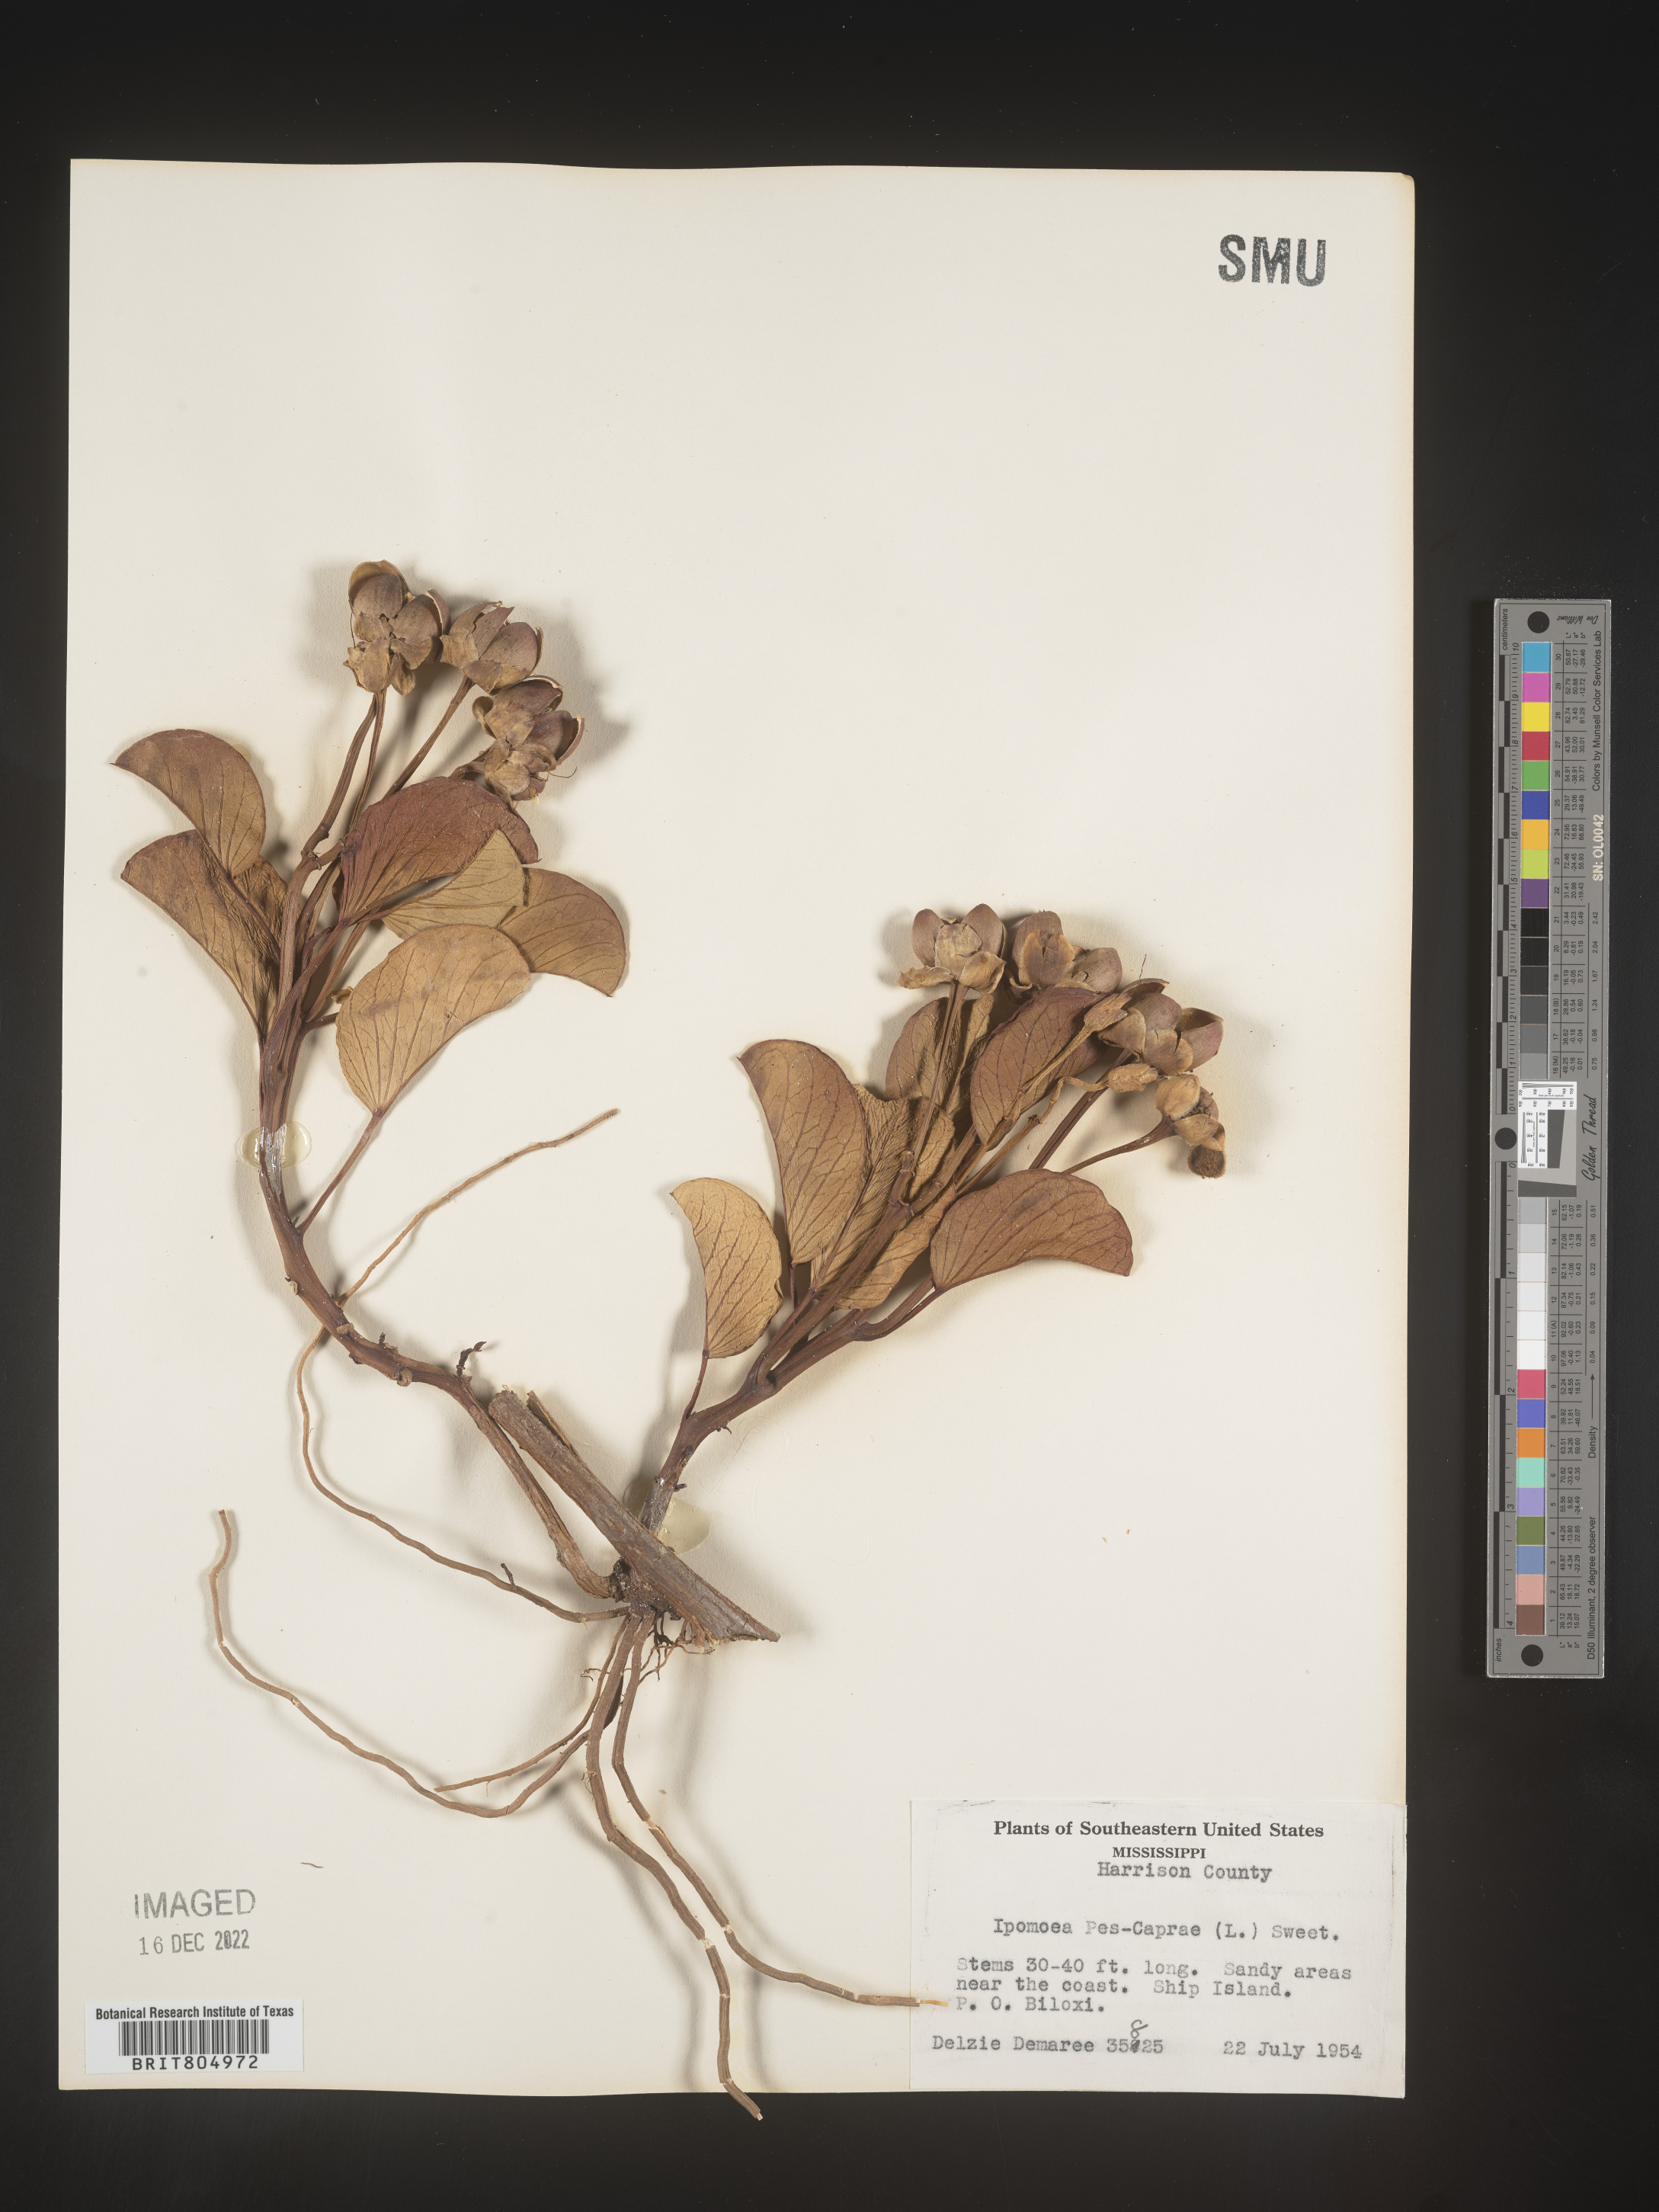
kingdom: Plantae
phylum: Tracheophyta
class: Magnoliopsida
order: Solanales
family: Convolvulaceae
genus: Ipomoea
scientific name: Ipomoea pes-caprae
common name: Beach morning glory
